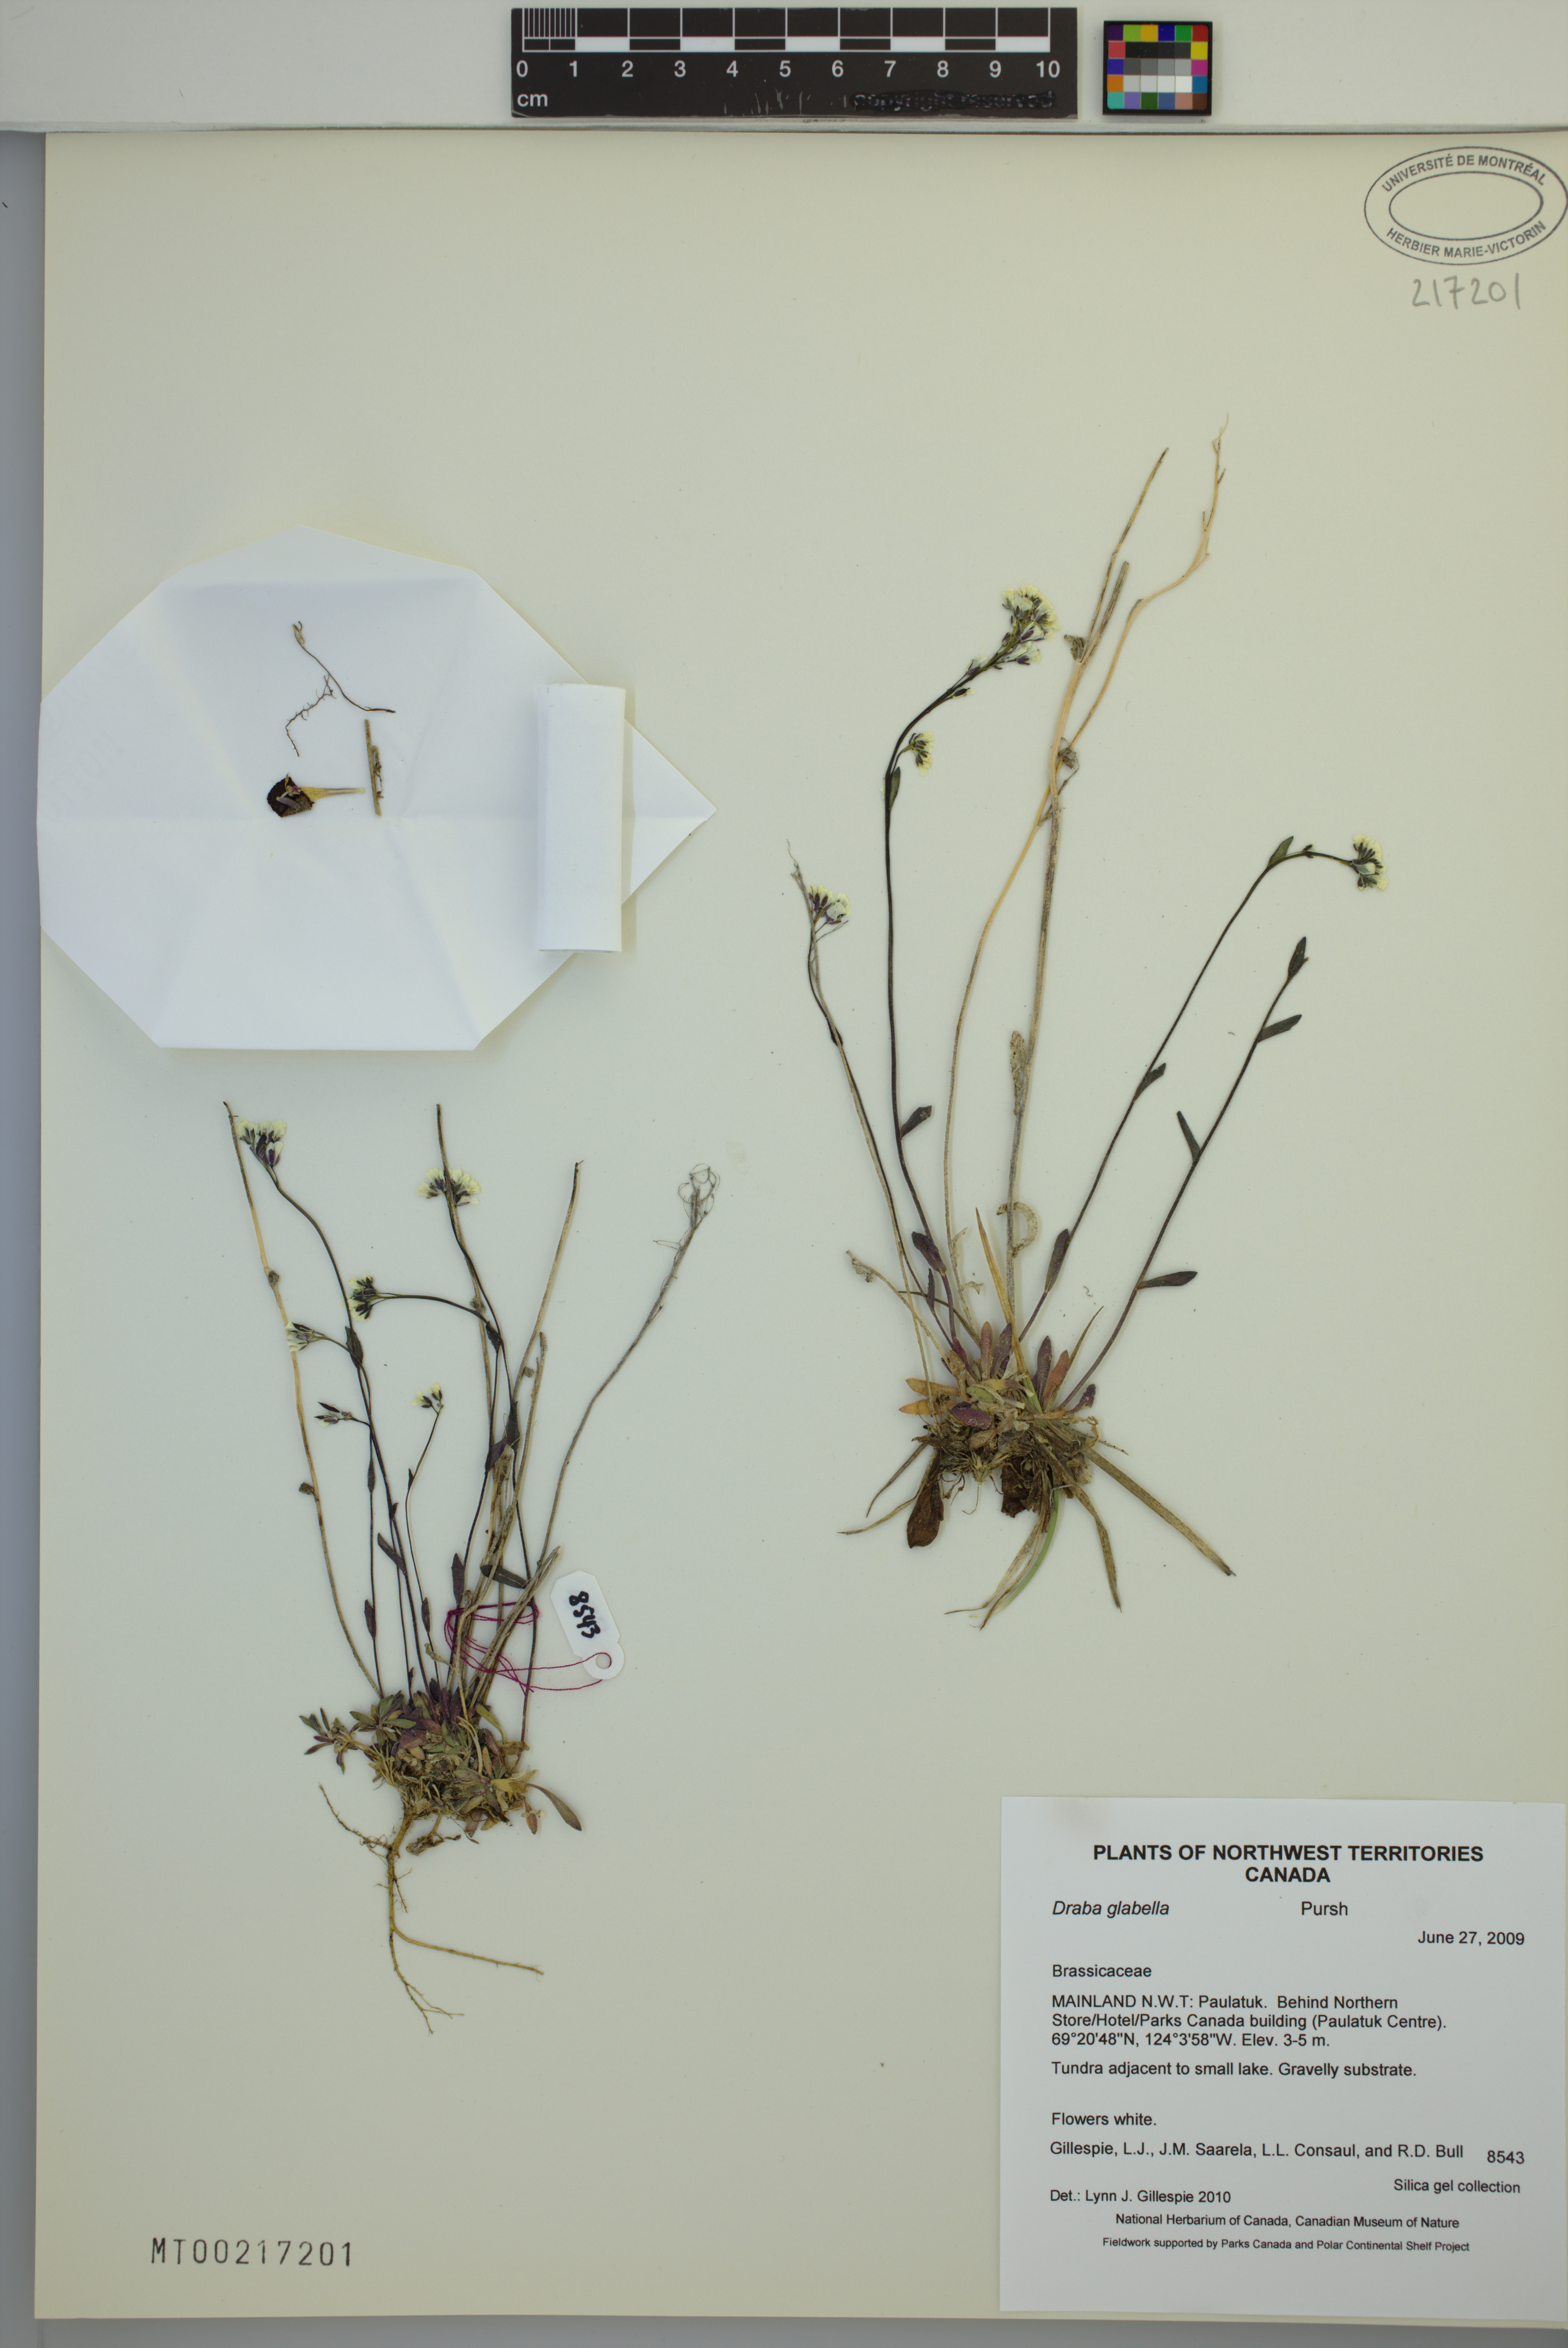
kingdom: Plantae
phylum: Tracheophyta
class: Magnoliopsida
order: Brassicales
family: Brassicaceae
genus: Draba
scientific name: Draba glabella
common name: Glaucous draba
